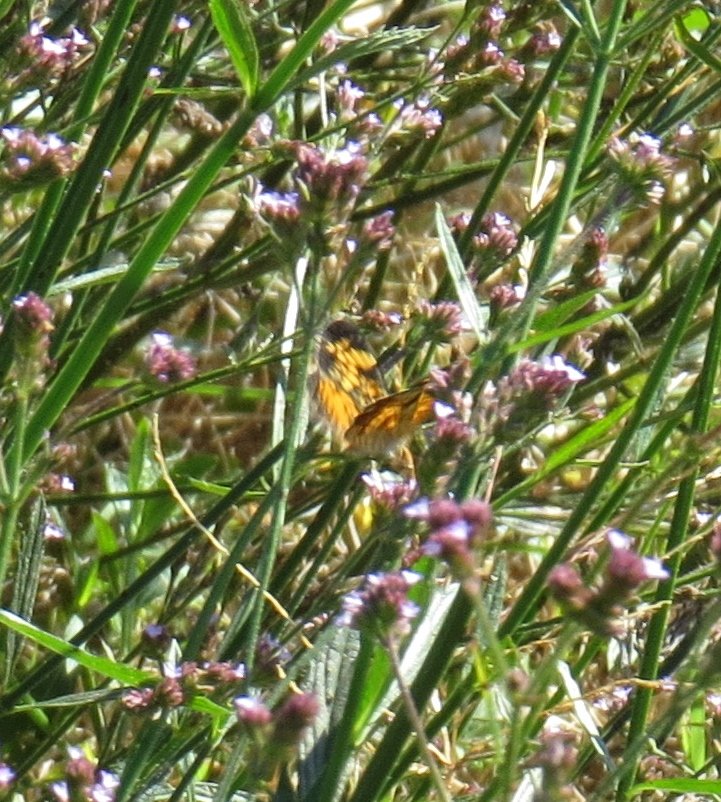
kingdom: Animalia
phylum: Arthropoda
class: Insecta
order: Lepidoptera
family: Nymphalidae
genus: Phyciodes
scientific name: Phyciodes tharos
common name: Pearl Crescent
